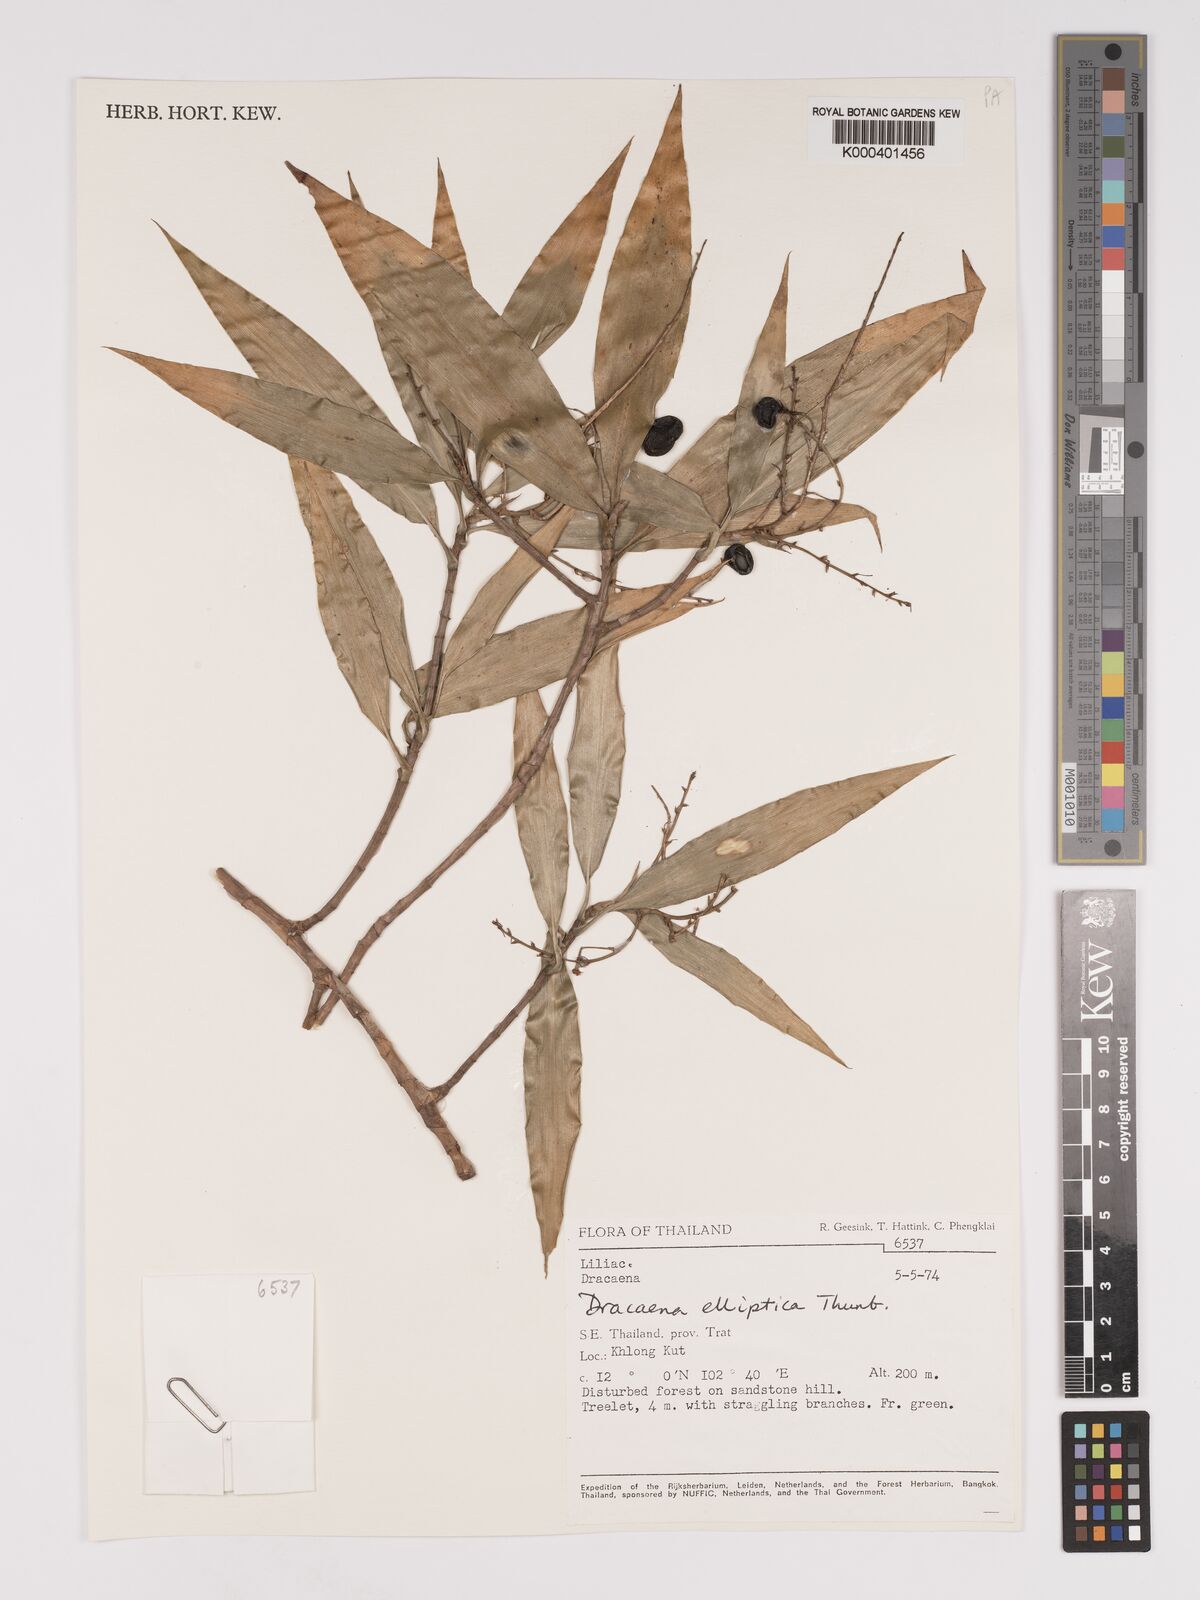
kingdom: Plantae
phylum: Tracheophyta
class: Liliopsida
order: Asparagales
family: Asparagaceae
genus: Dracaena
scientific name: Dracaena elliptica
